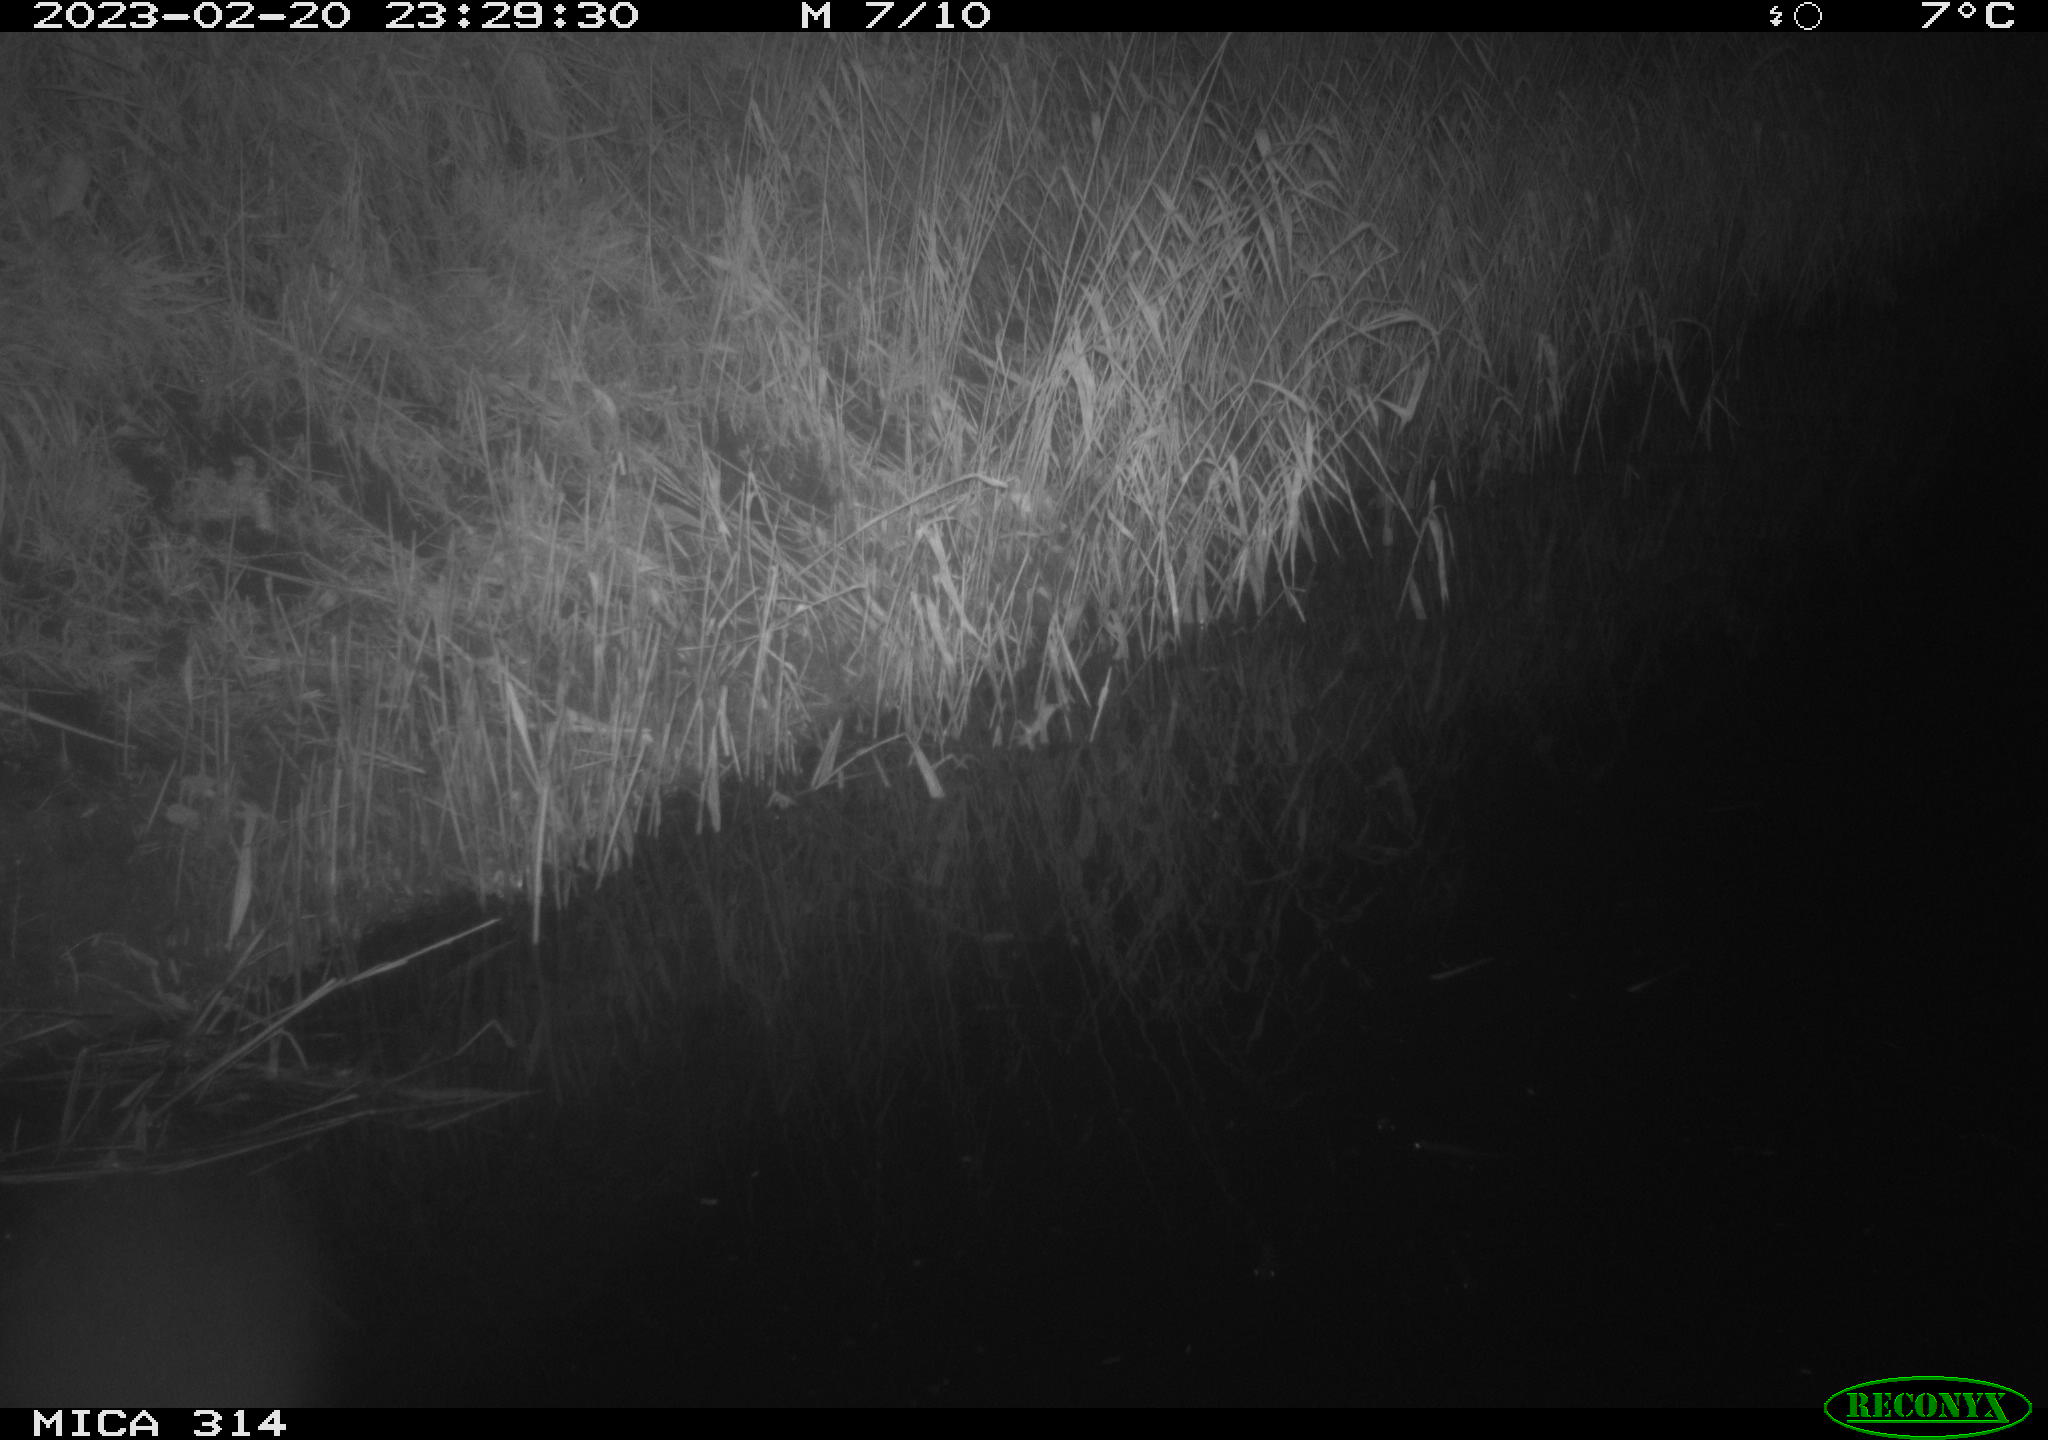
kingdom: Animalia
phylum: Chordata
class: Mammalia
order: Rodentia
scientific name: Rodentia
